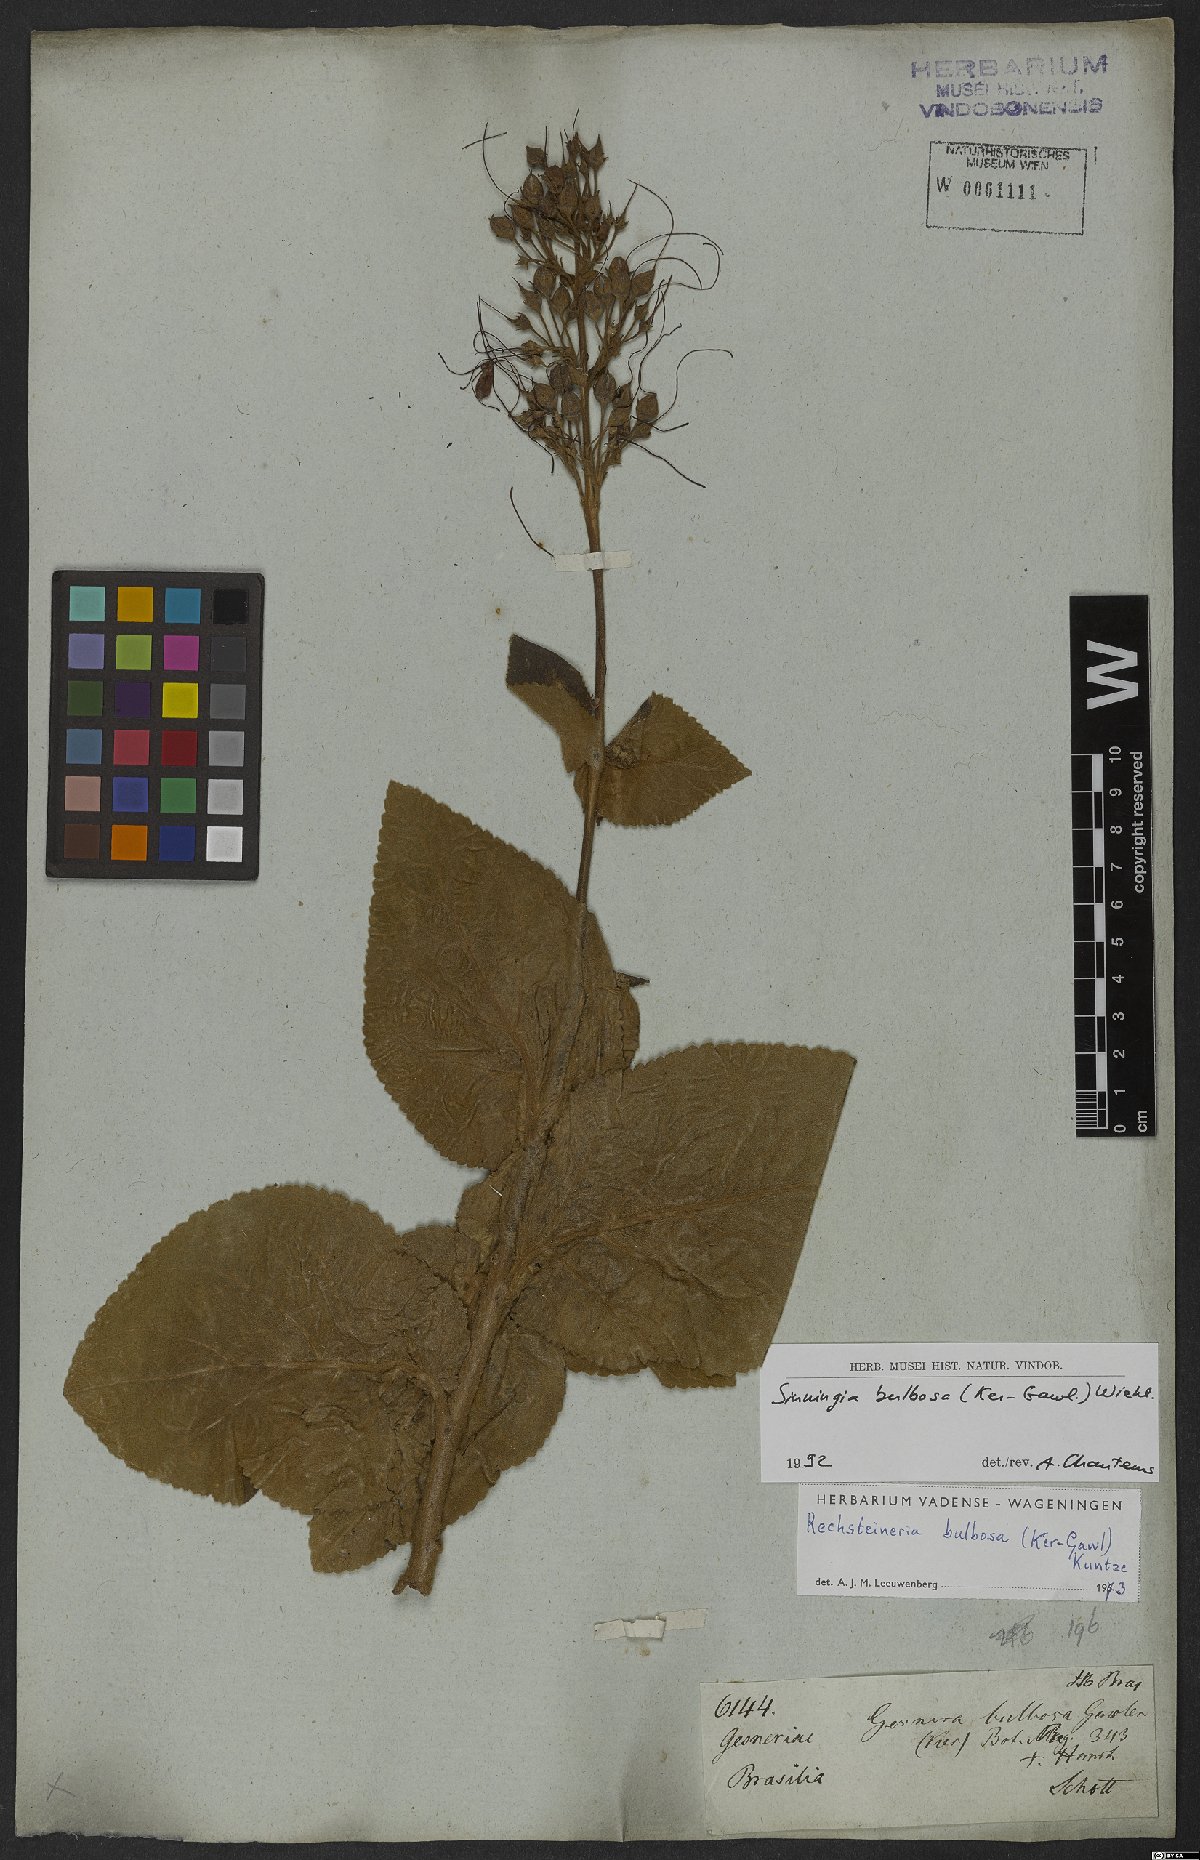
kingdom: Plantae
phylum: Tracheophyta
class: Magnoliopsida
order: Lamiales
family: Gesneriaceae
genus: Sinningia
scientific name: Sinningia bulbosa
